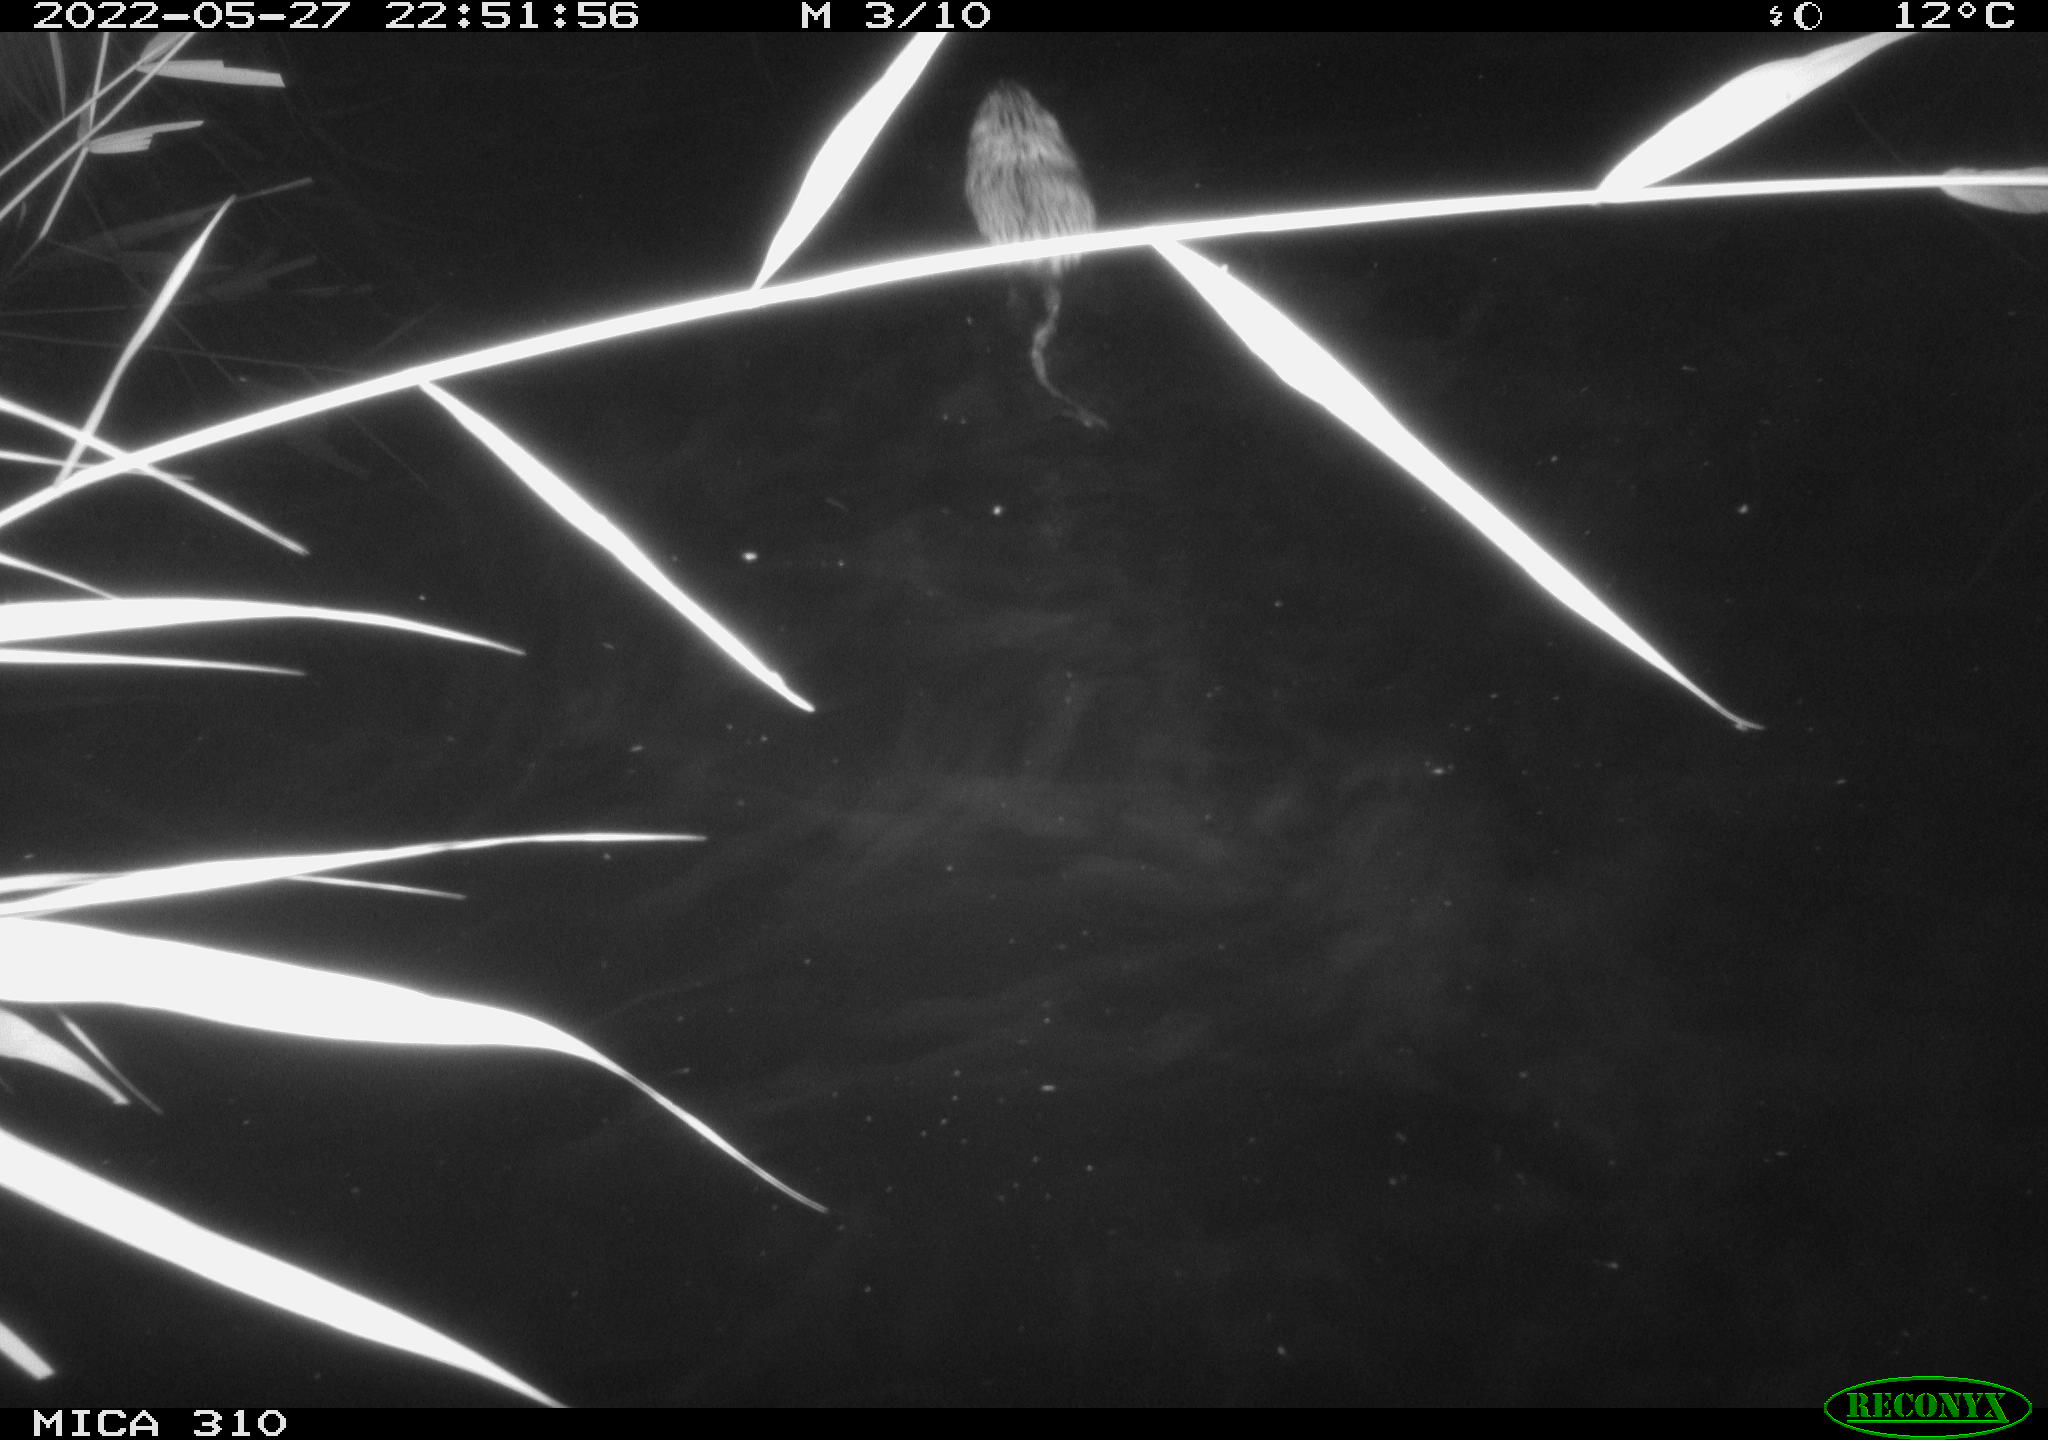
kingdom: Animalia
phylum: Chordata
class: Mammalia
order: Rodentia
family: Cricetidae
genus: Ondatra
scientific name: Ondatra zibethicus
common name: Muskrat
